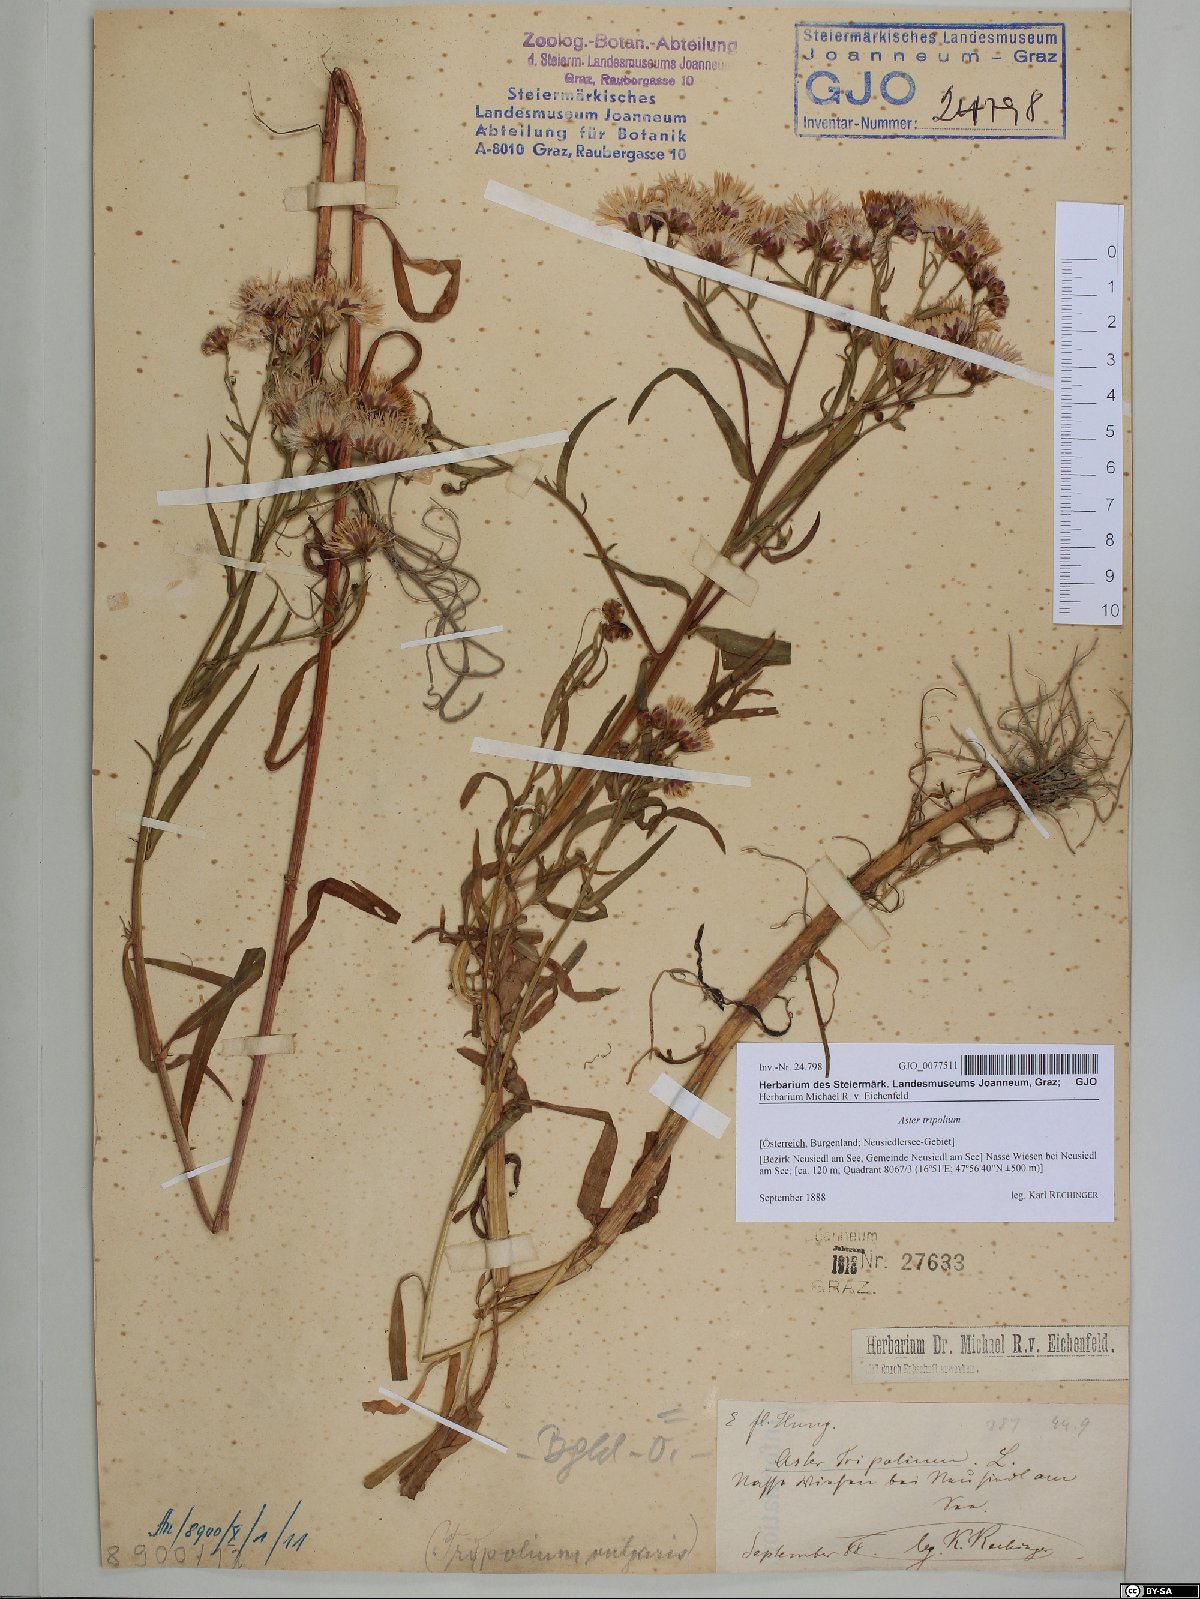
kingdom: Plantae
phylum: Tracheophyta
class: Magnoliopsida
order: Asterales
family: Asteraceae
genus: Tripolium
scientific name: Tripolium pannonicum
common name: Sea aster
